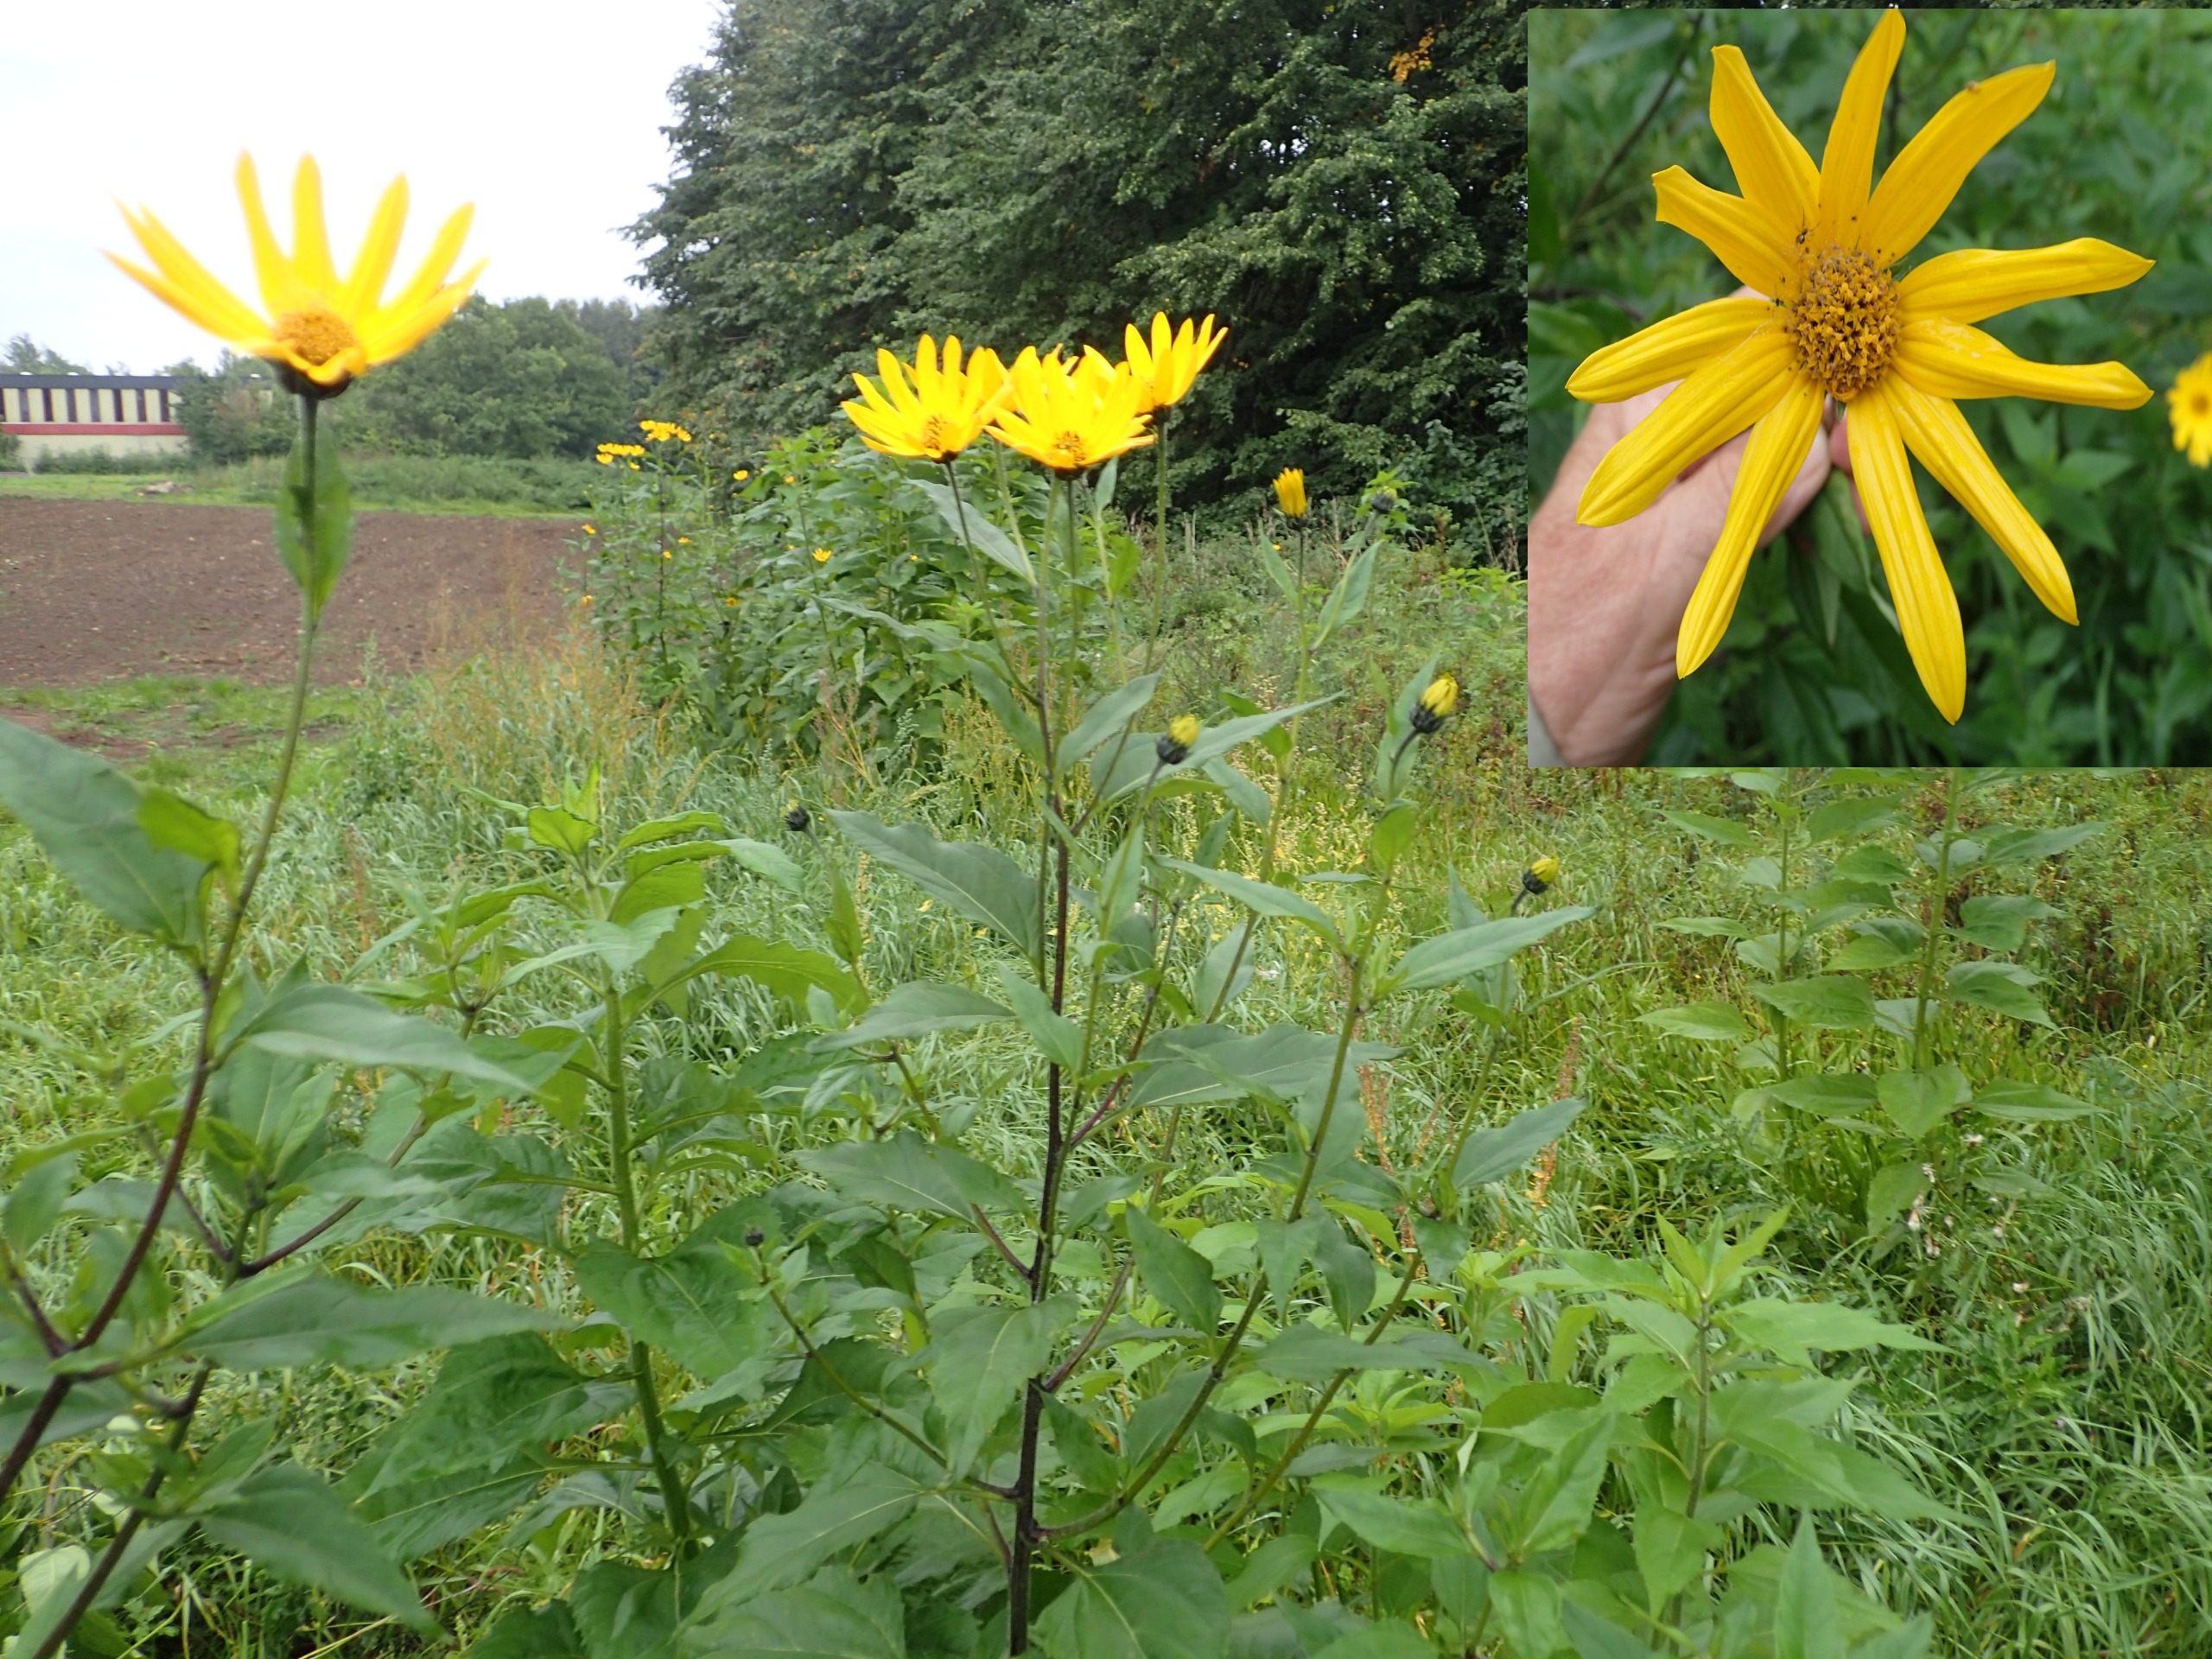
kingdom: Plantae
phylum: Tracheophyta
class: Magnoliopsida
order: Asterales
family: Asteraceae
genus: Helianthus
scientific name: Helianthus tuberosus
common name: Jordskok
